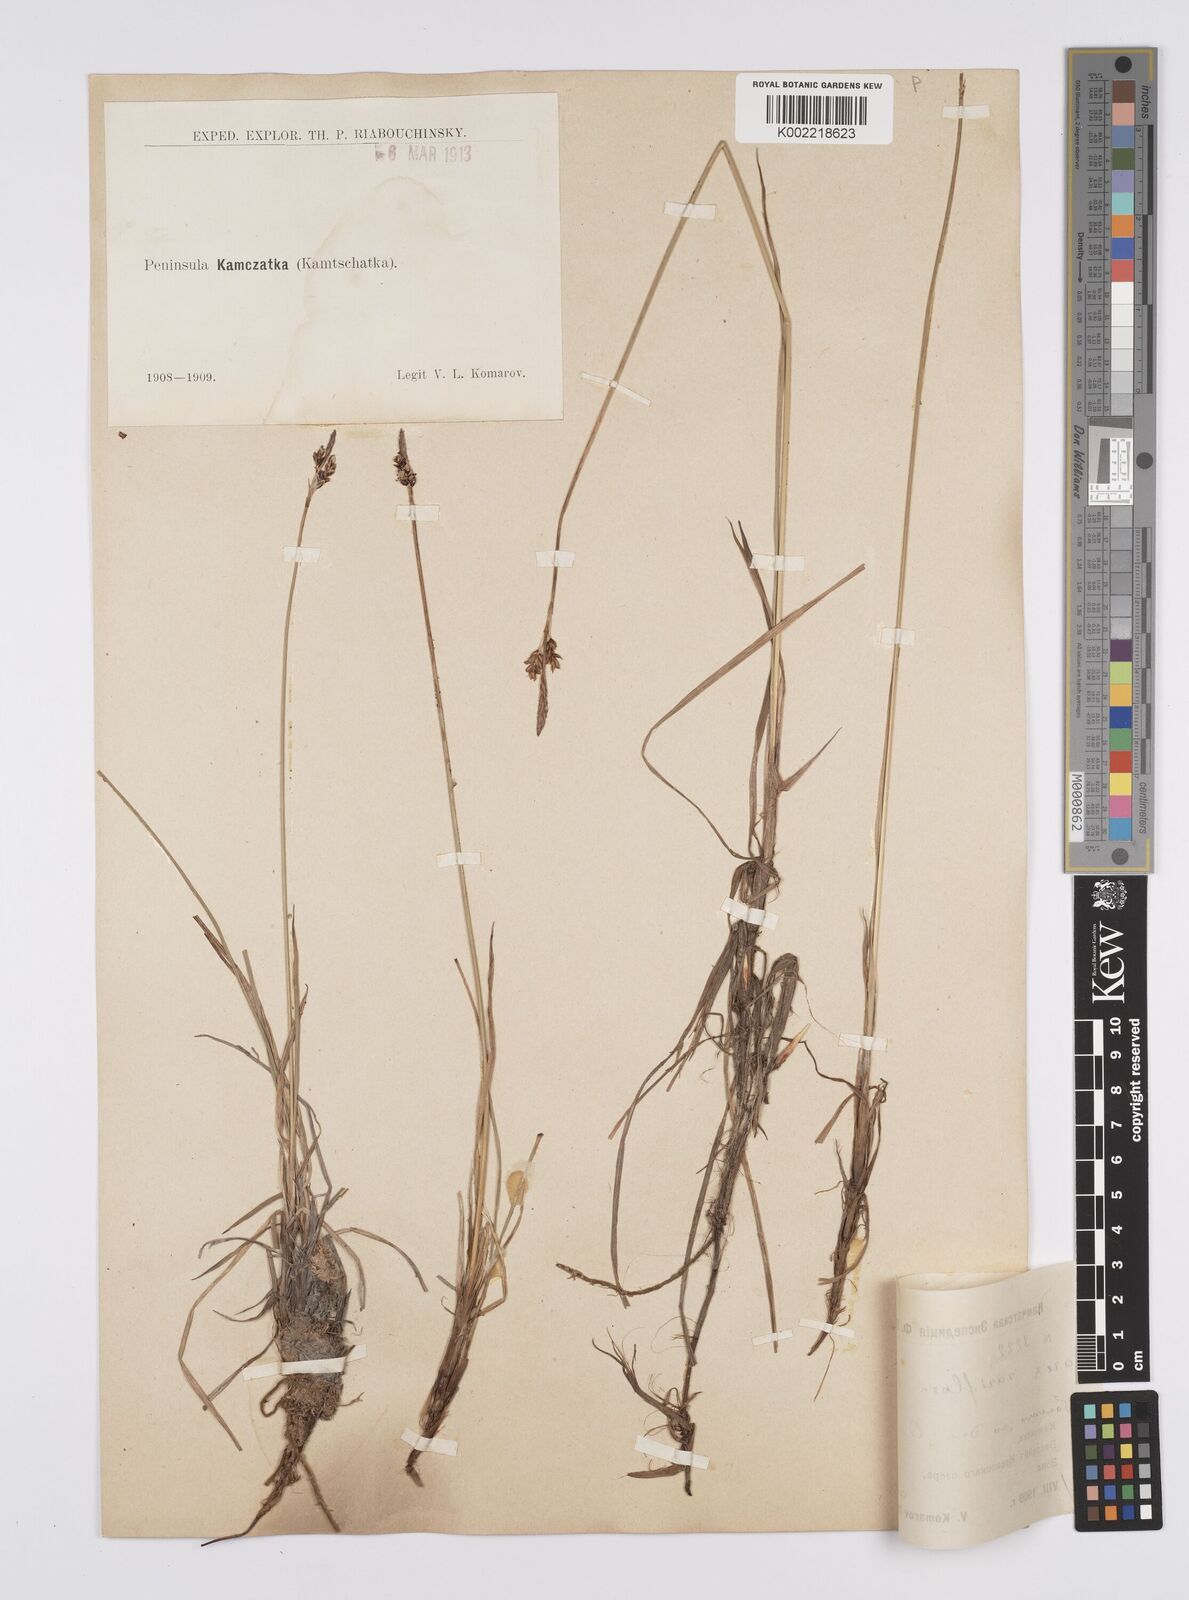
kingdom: Plantae
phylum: Tracheophyta
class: Liliopsida
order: Poales
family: Cyperaceae
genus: Carex
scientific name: Carex rariflora
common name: Loose-flowered alpine sedge
